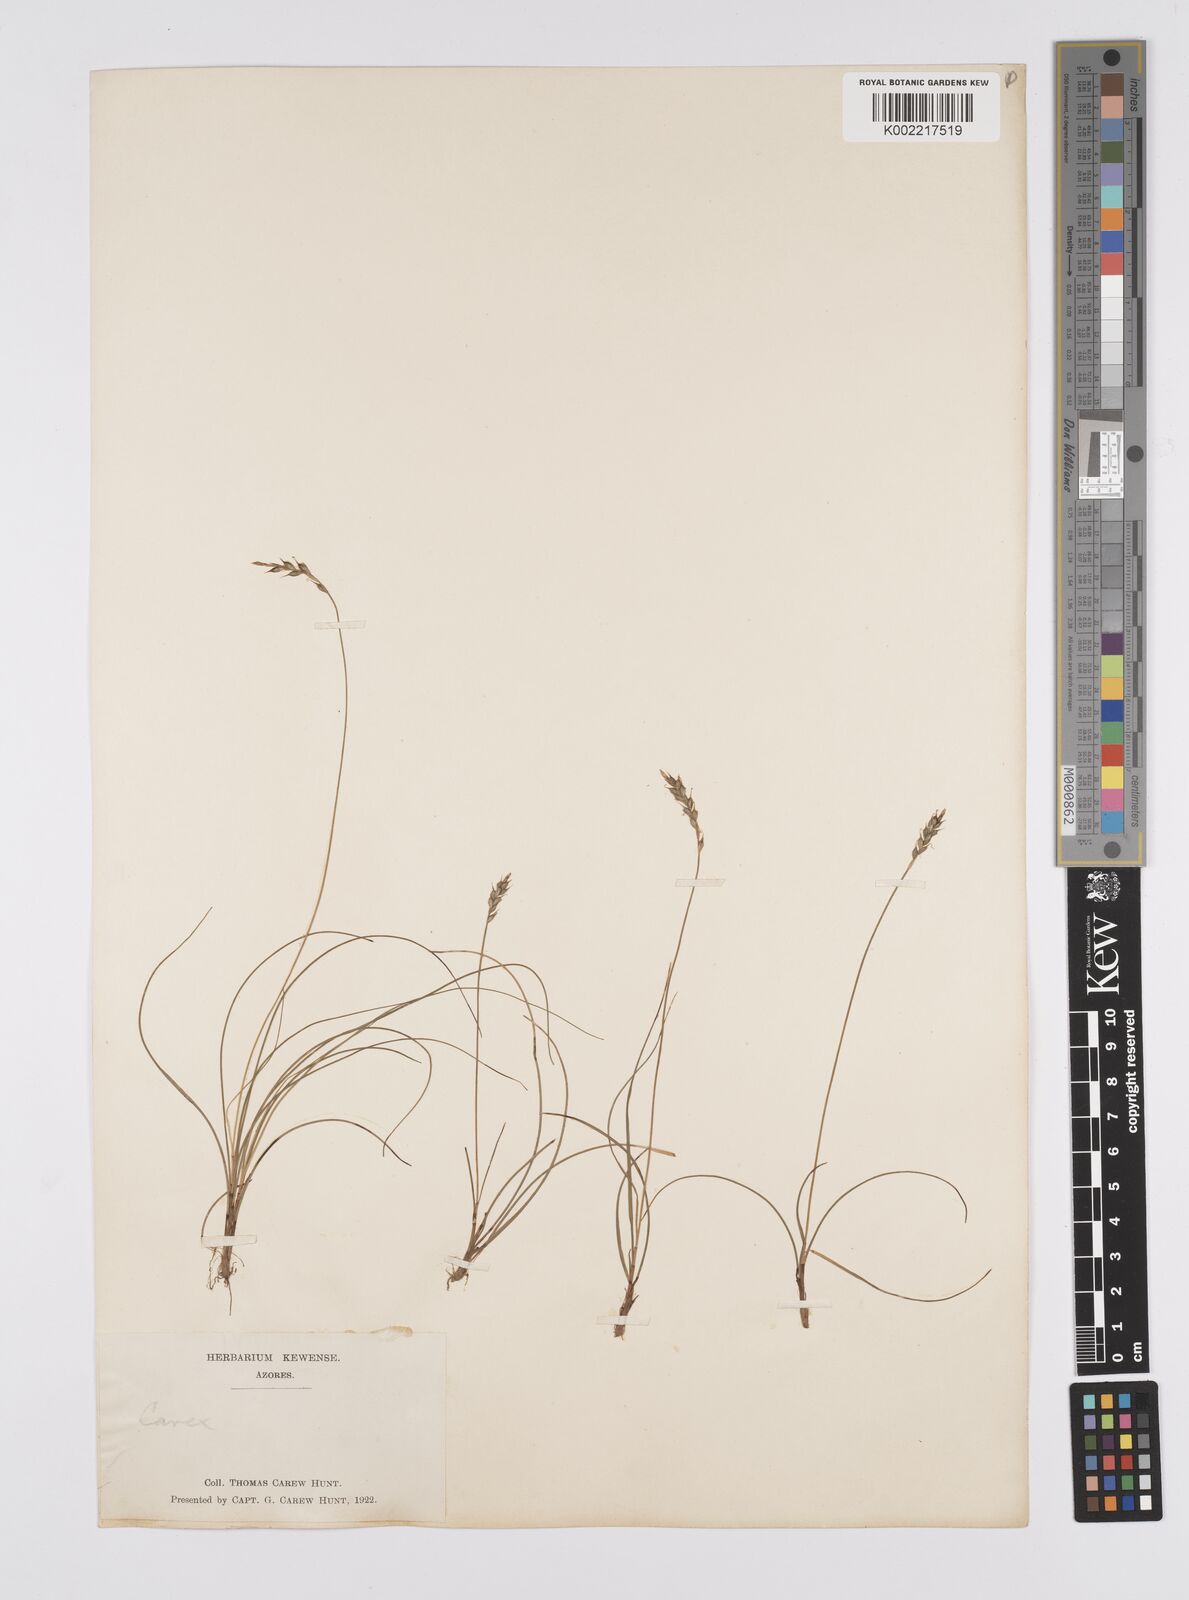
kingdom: Plantae
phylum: Tracheophyta
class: Liliopsida
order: Poales
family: Cyperaceae
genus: Carex
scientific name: Carex peregrina
